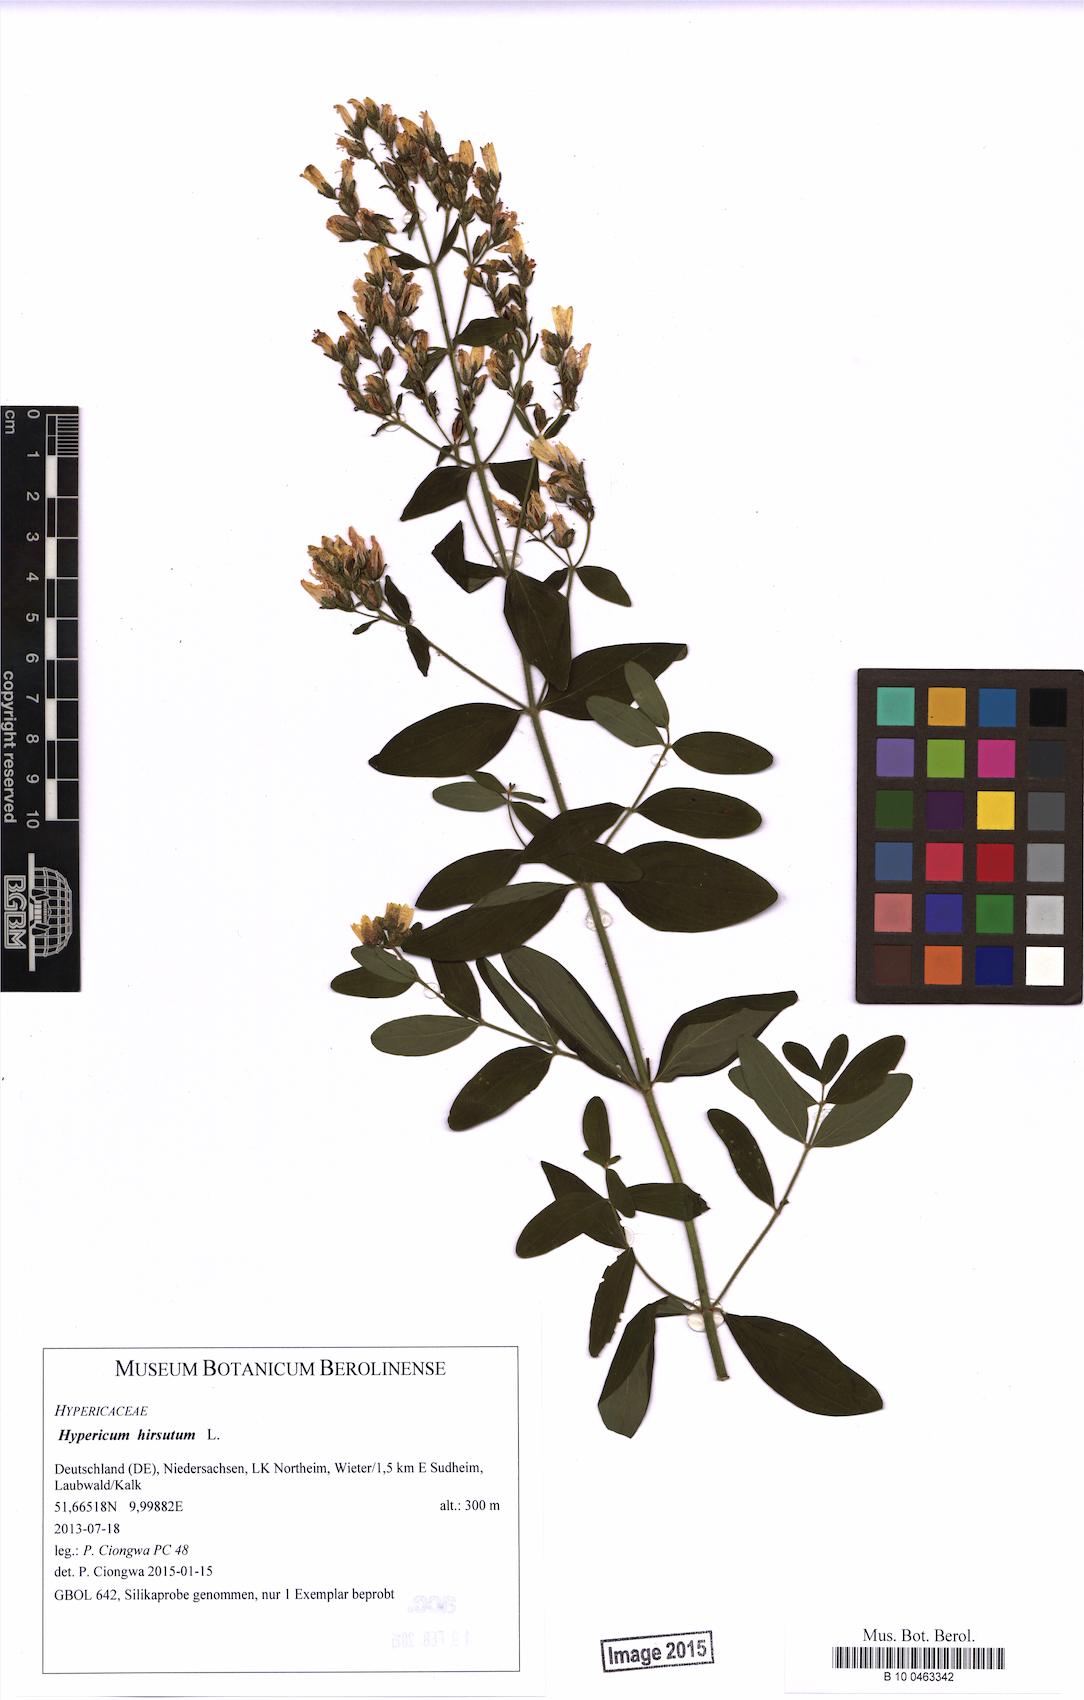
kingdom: Plantae
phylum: Tracheophyta
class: Magnoliopsida
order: Malpighiales
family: Hypericaceae
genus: Hypericum
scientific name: Hypericum hirsutum
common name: Hairy st. john's-wort
